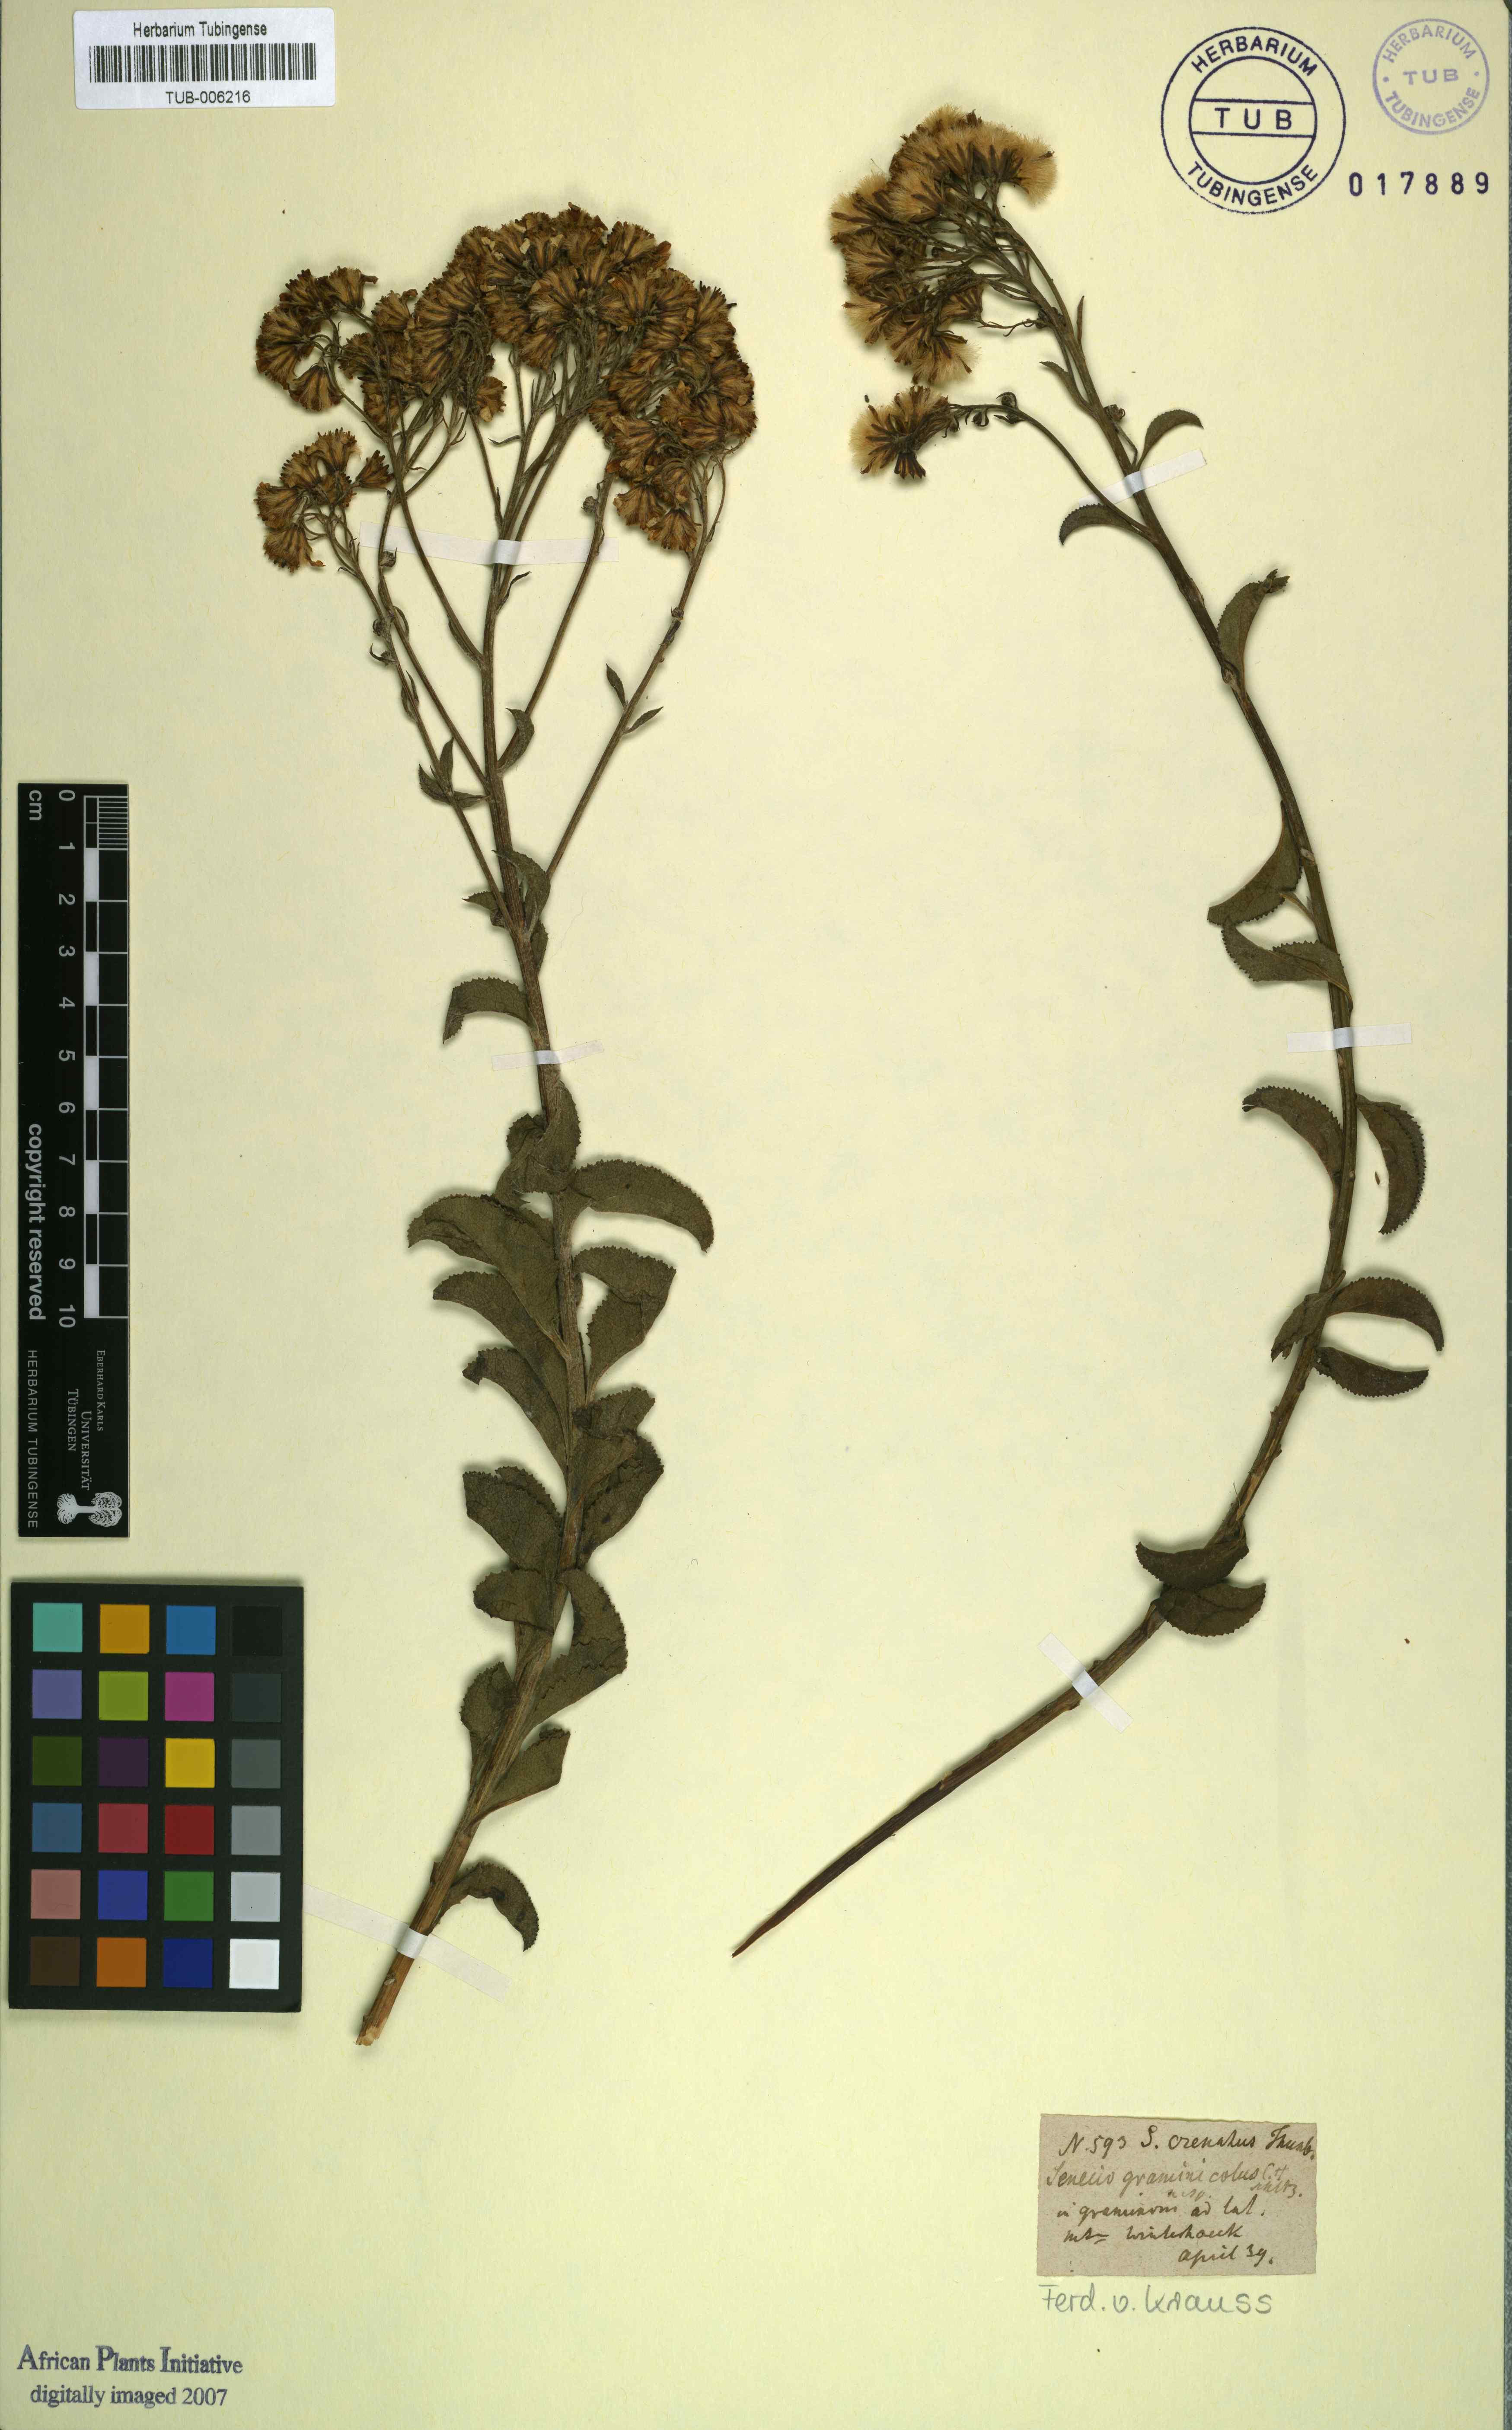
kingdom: Plantae
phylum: Tracheophyta
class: Magnoliopsida
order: Asterales
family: Asteraceae
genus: Senecio
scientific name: Senecio crenatus
